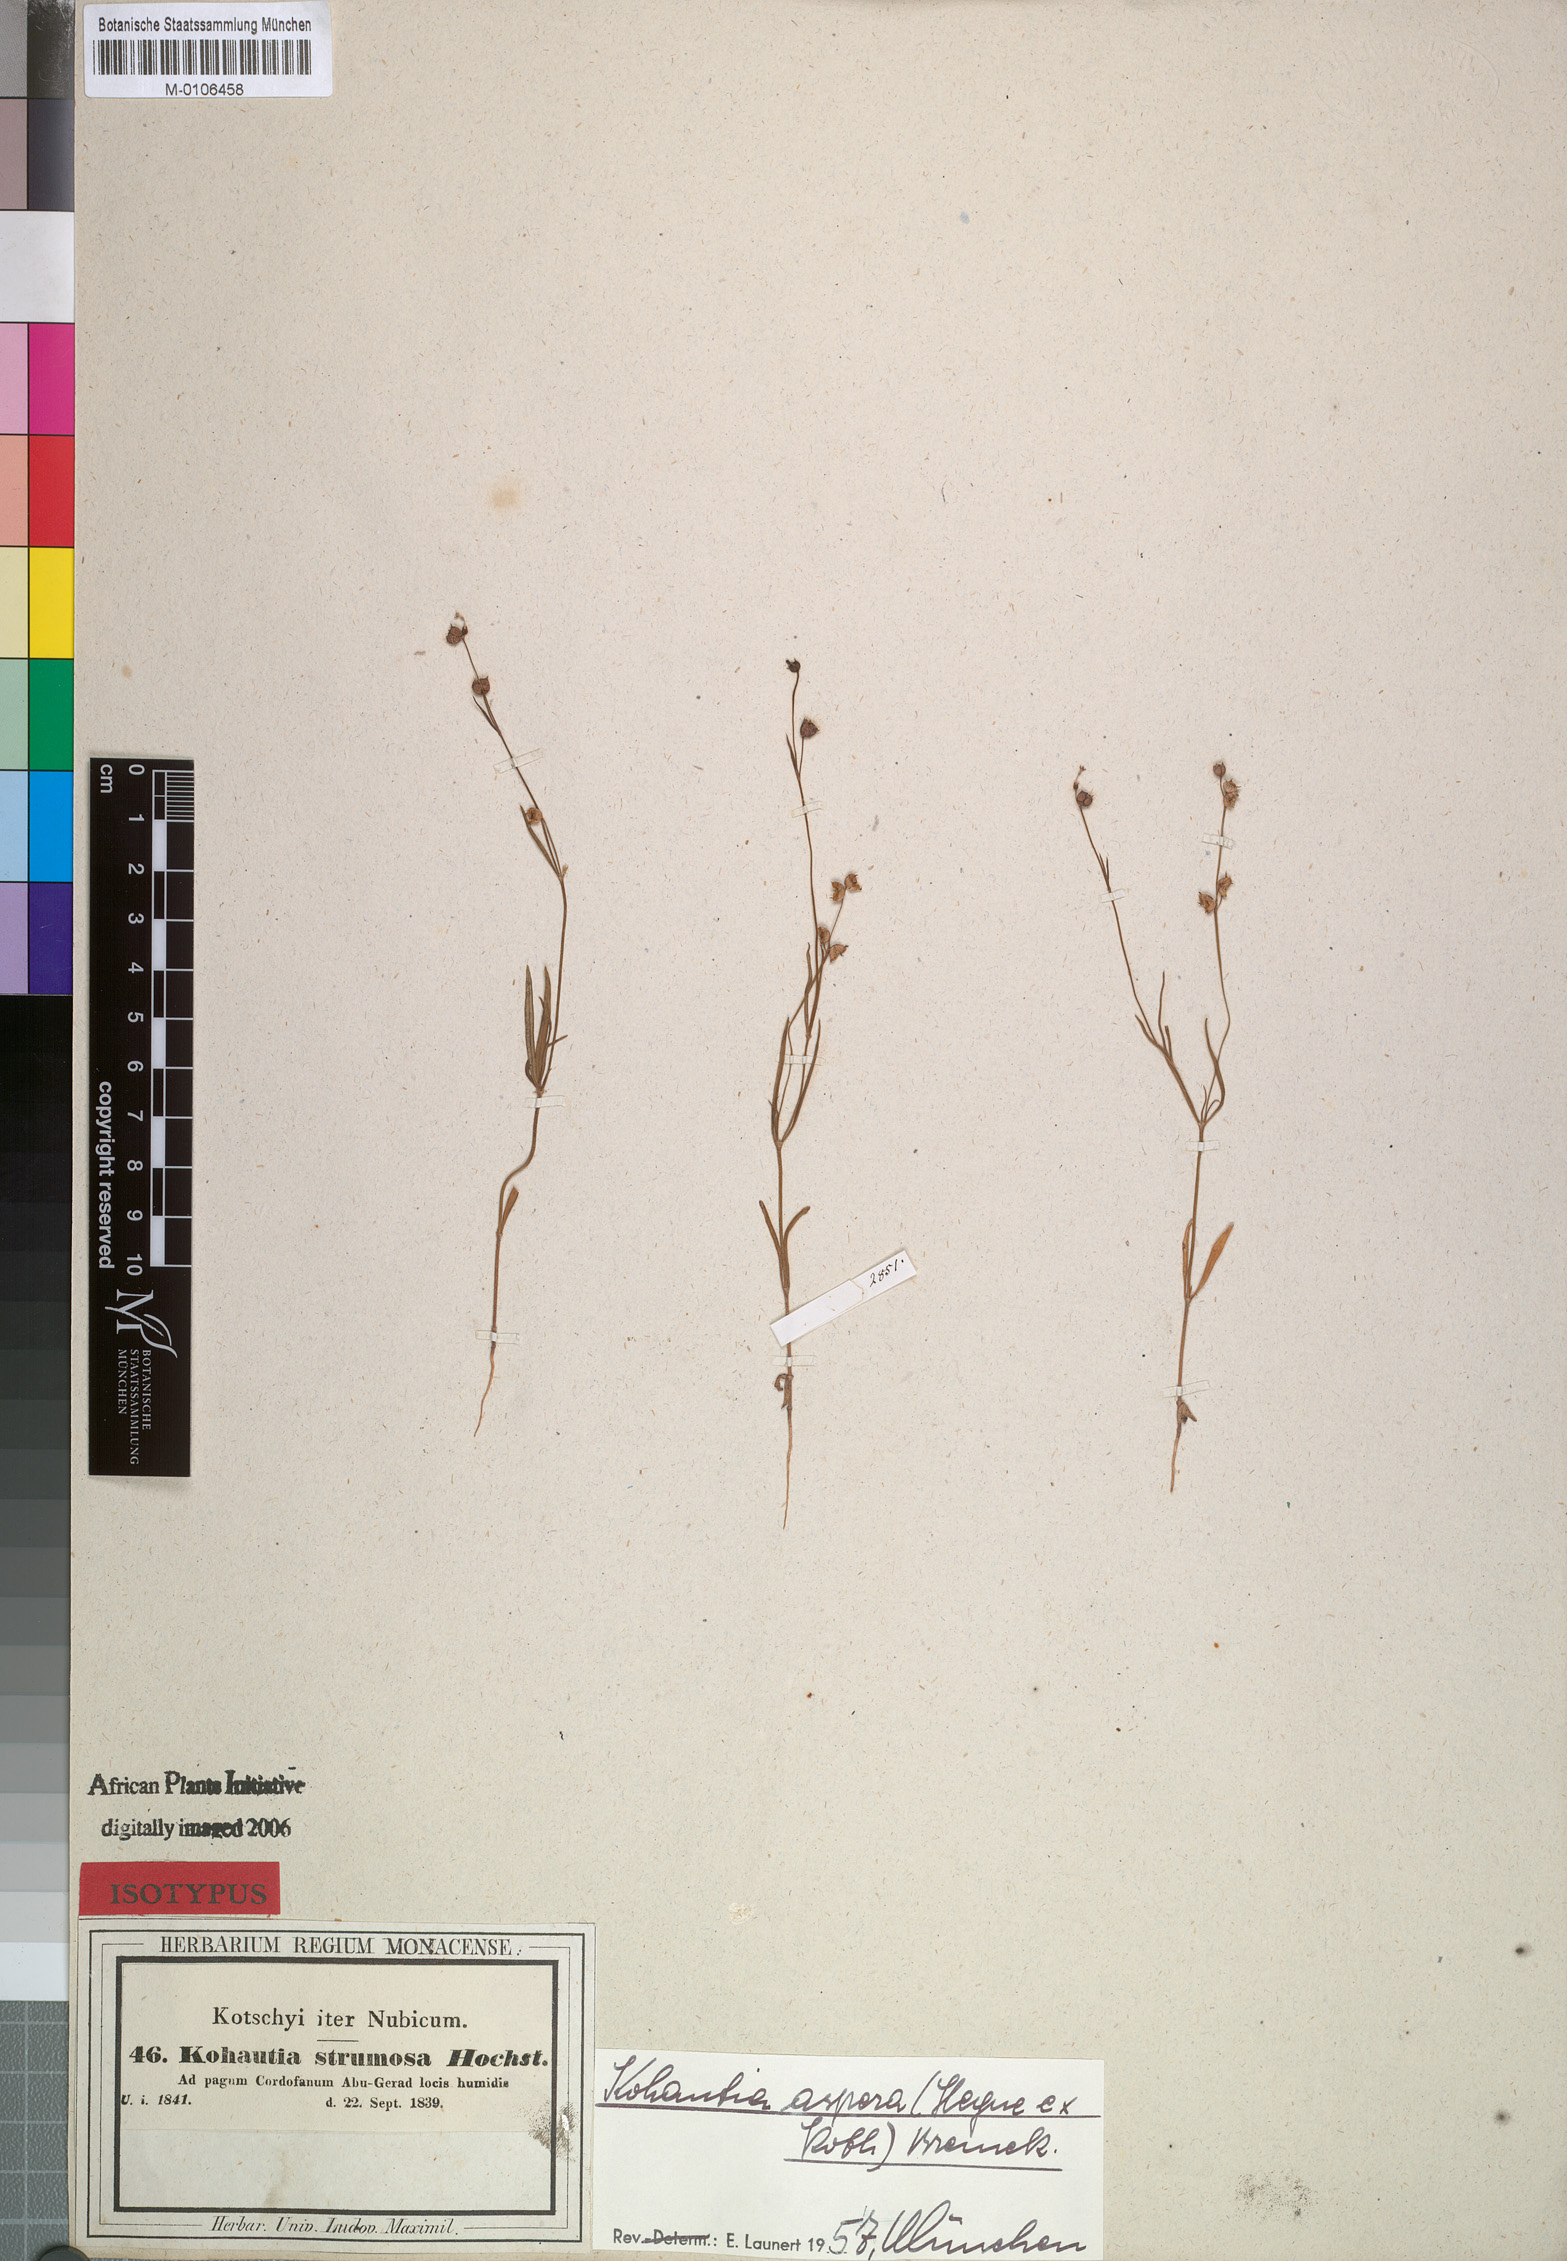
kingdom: Plantae
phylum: Tracheophyta
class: Magnoliopsida
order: Gentianales
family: Rubiaceae
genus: Kohautia
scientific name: Kohautia aspera
